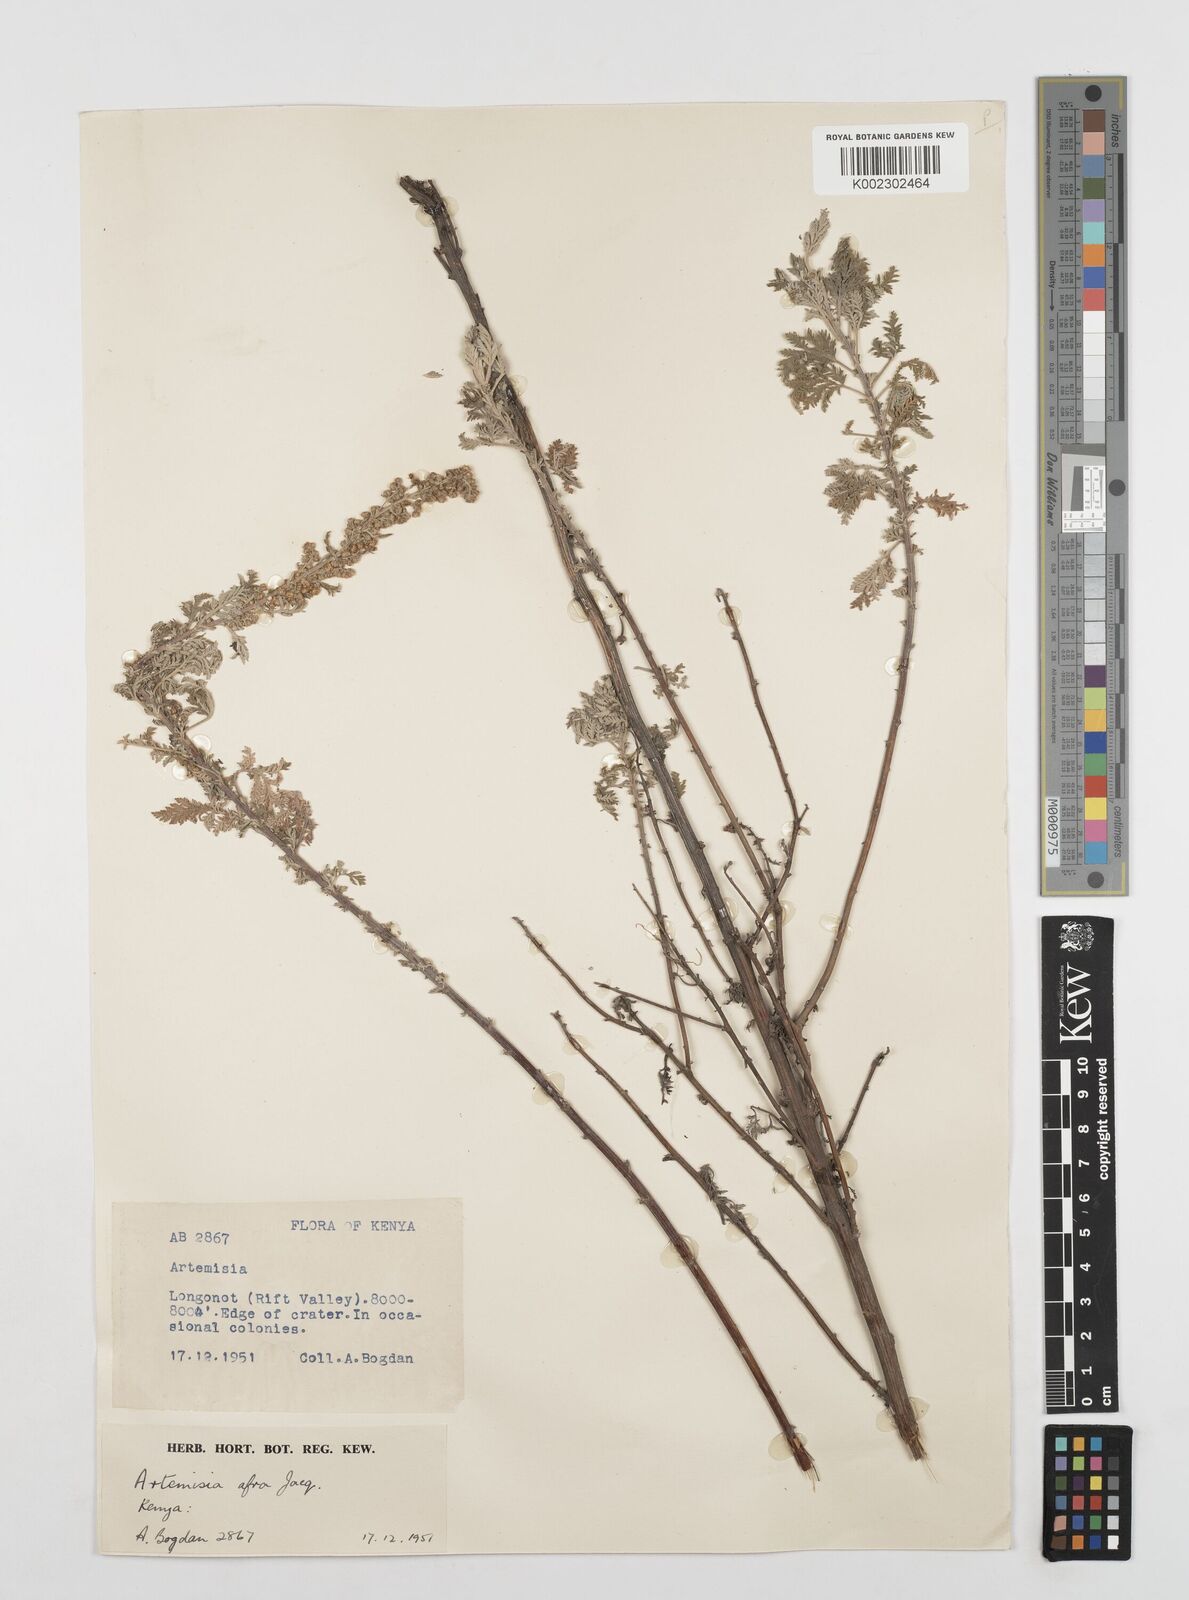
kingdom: Plantae
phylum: Tracheophyta
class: Magnoliopsida
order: Asterales
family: Asteraceae
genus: Artemisia
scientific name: Artemisia afra
